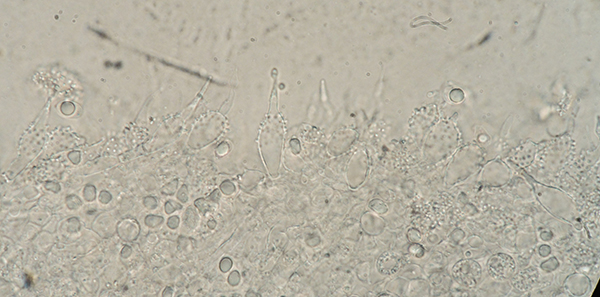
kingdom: Fungi
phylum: Basidiomycota
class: Agaricomycetes
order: Agaricales
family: Mycenaceae
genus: Mycena
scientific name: Mycena tenerrima
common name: pudret huesvamp
